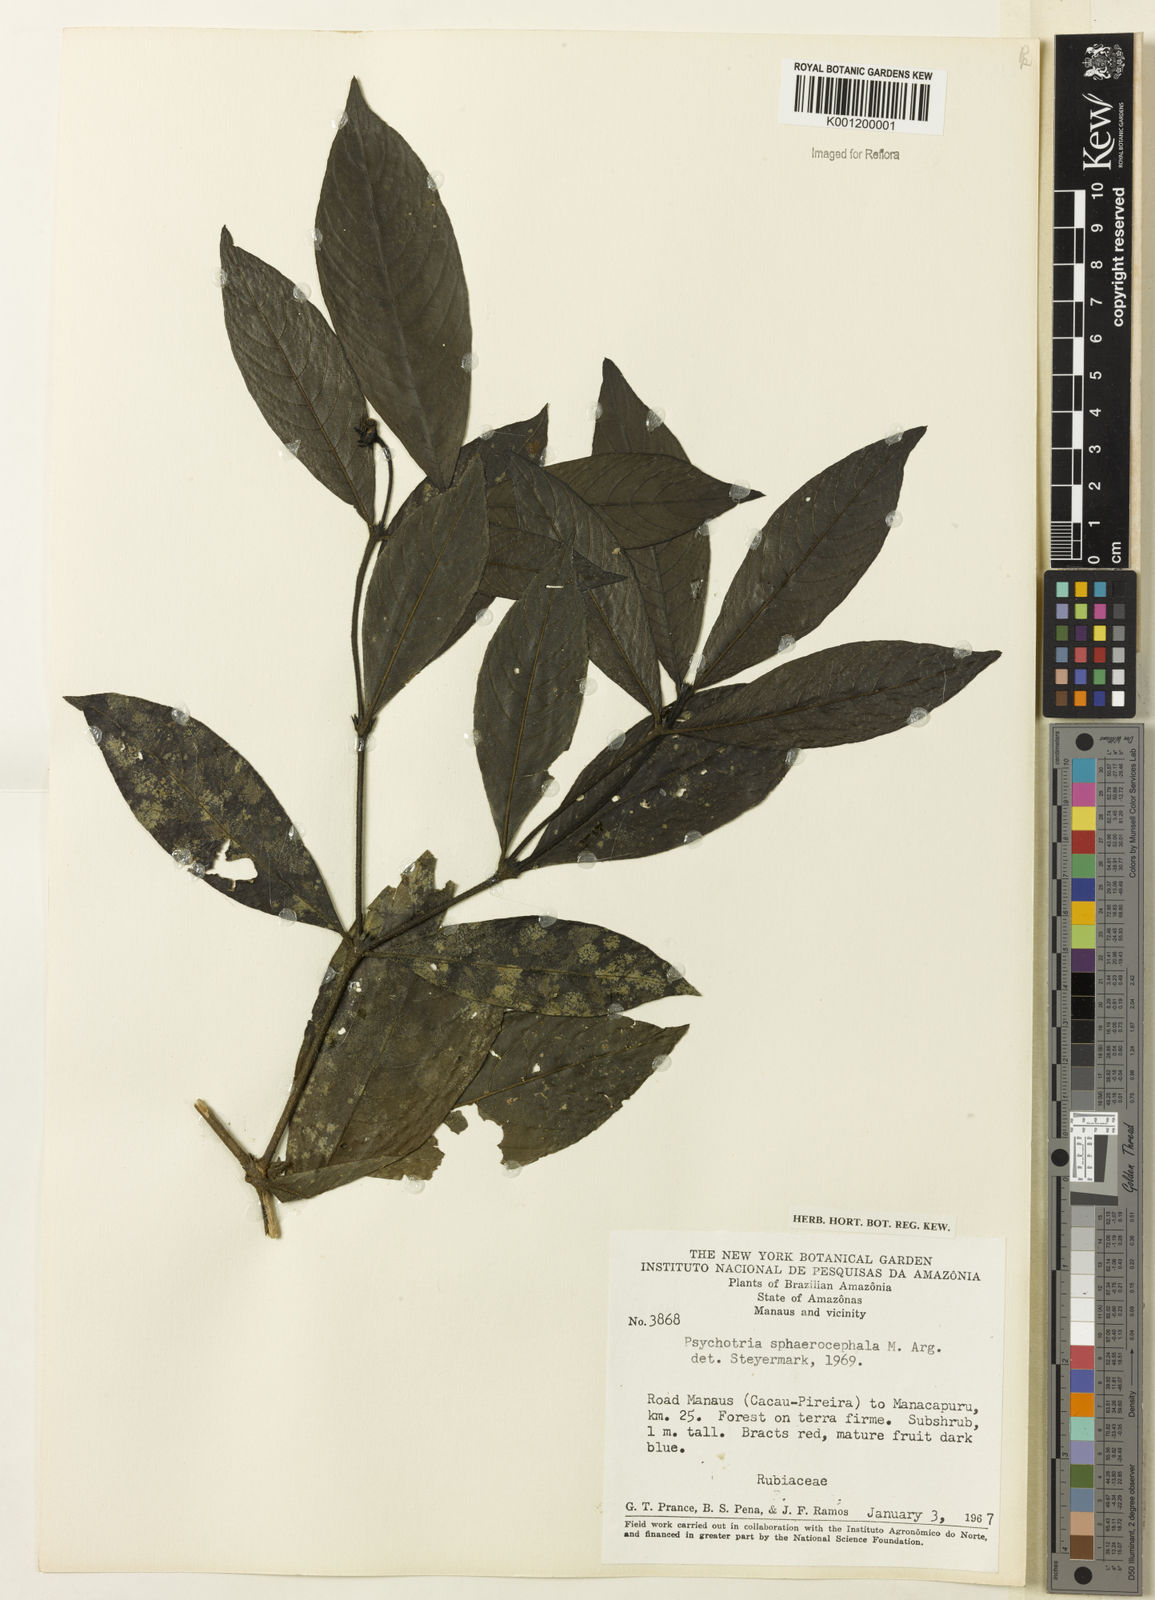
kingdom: Plantae
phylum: Tracheophyta
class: Magnoliopsida
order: Gentianales
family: Rubiaceae
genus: Psychotria
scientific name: Psychotria
